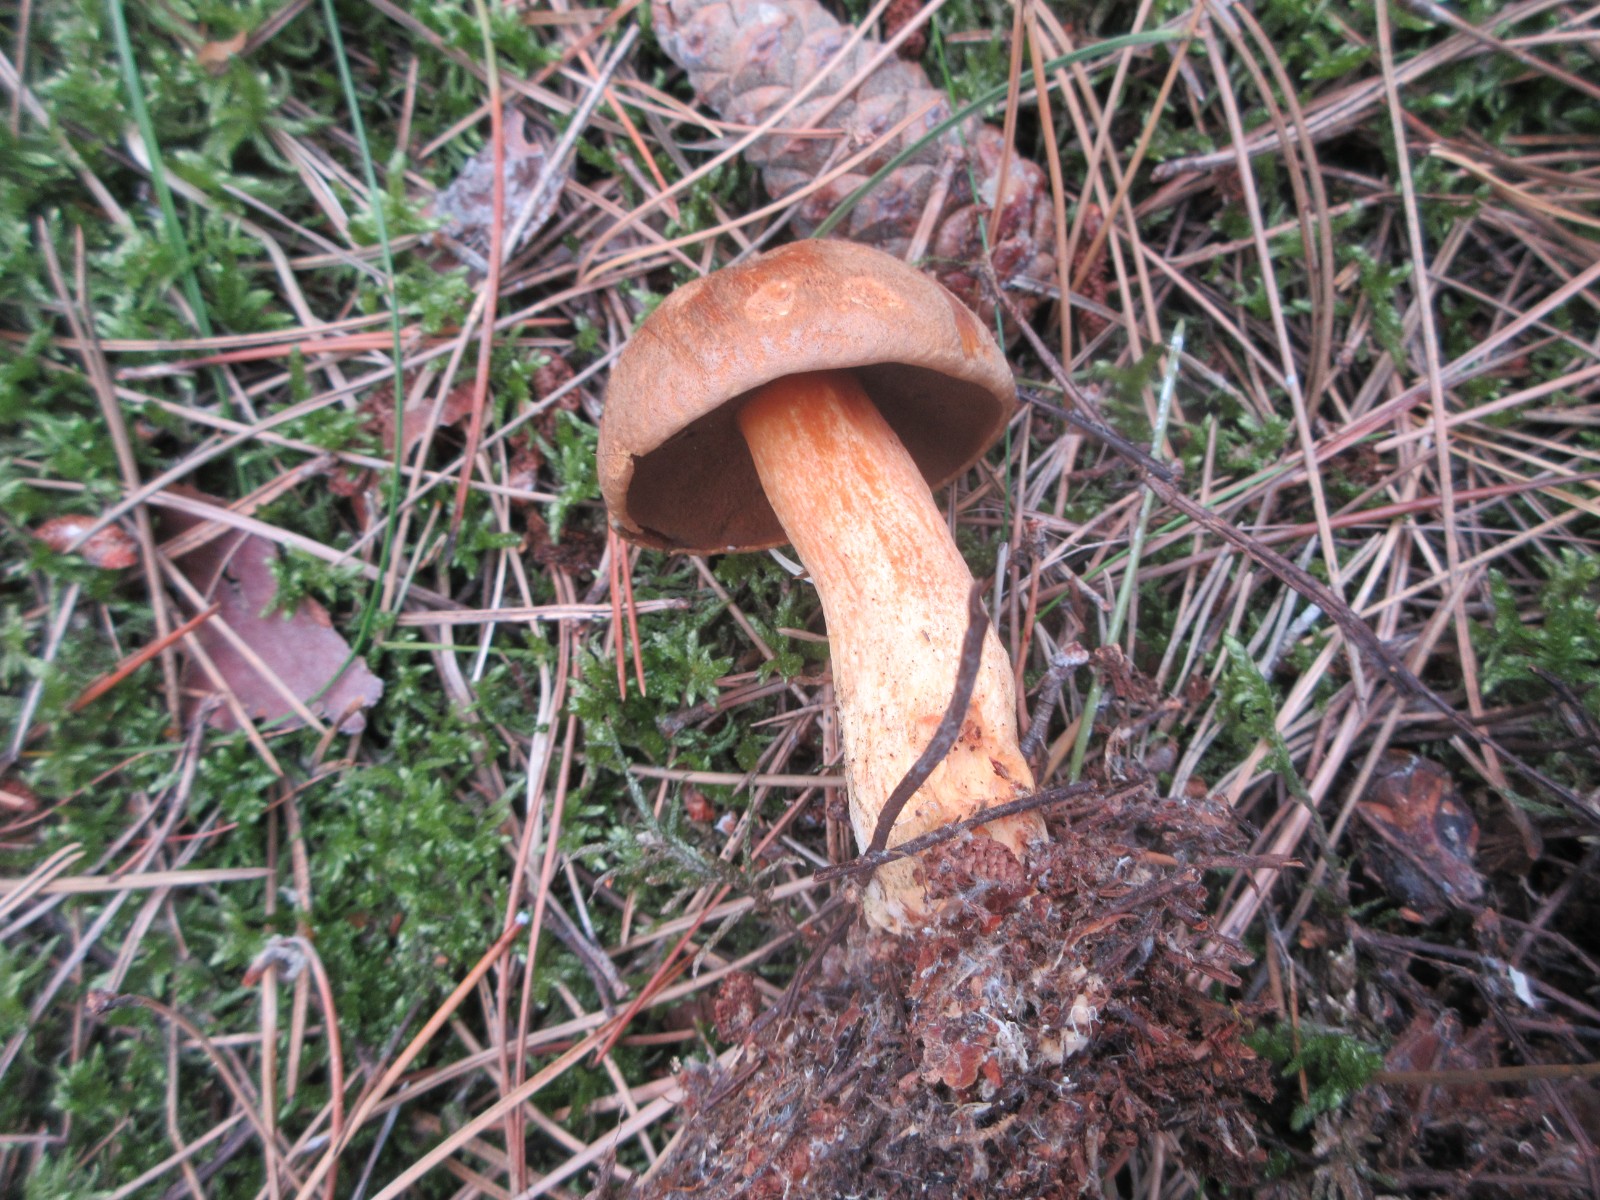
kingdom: Fungi
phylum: Basidiomycota
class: Agaricomycetes
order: Boletales
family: Suillaceae
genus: Suillus
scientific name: Suillus variegatus
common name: broget slimrørhat
